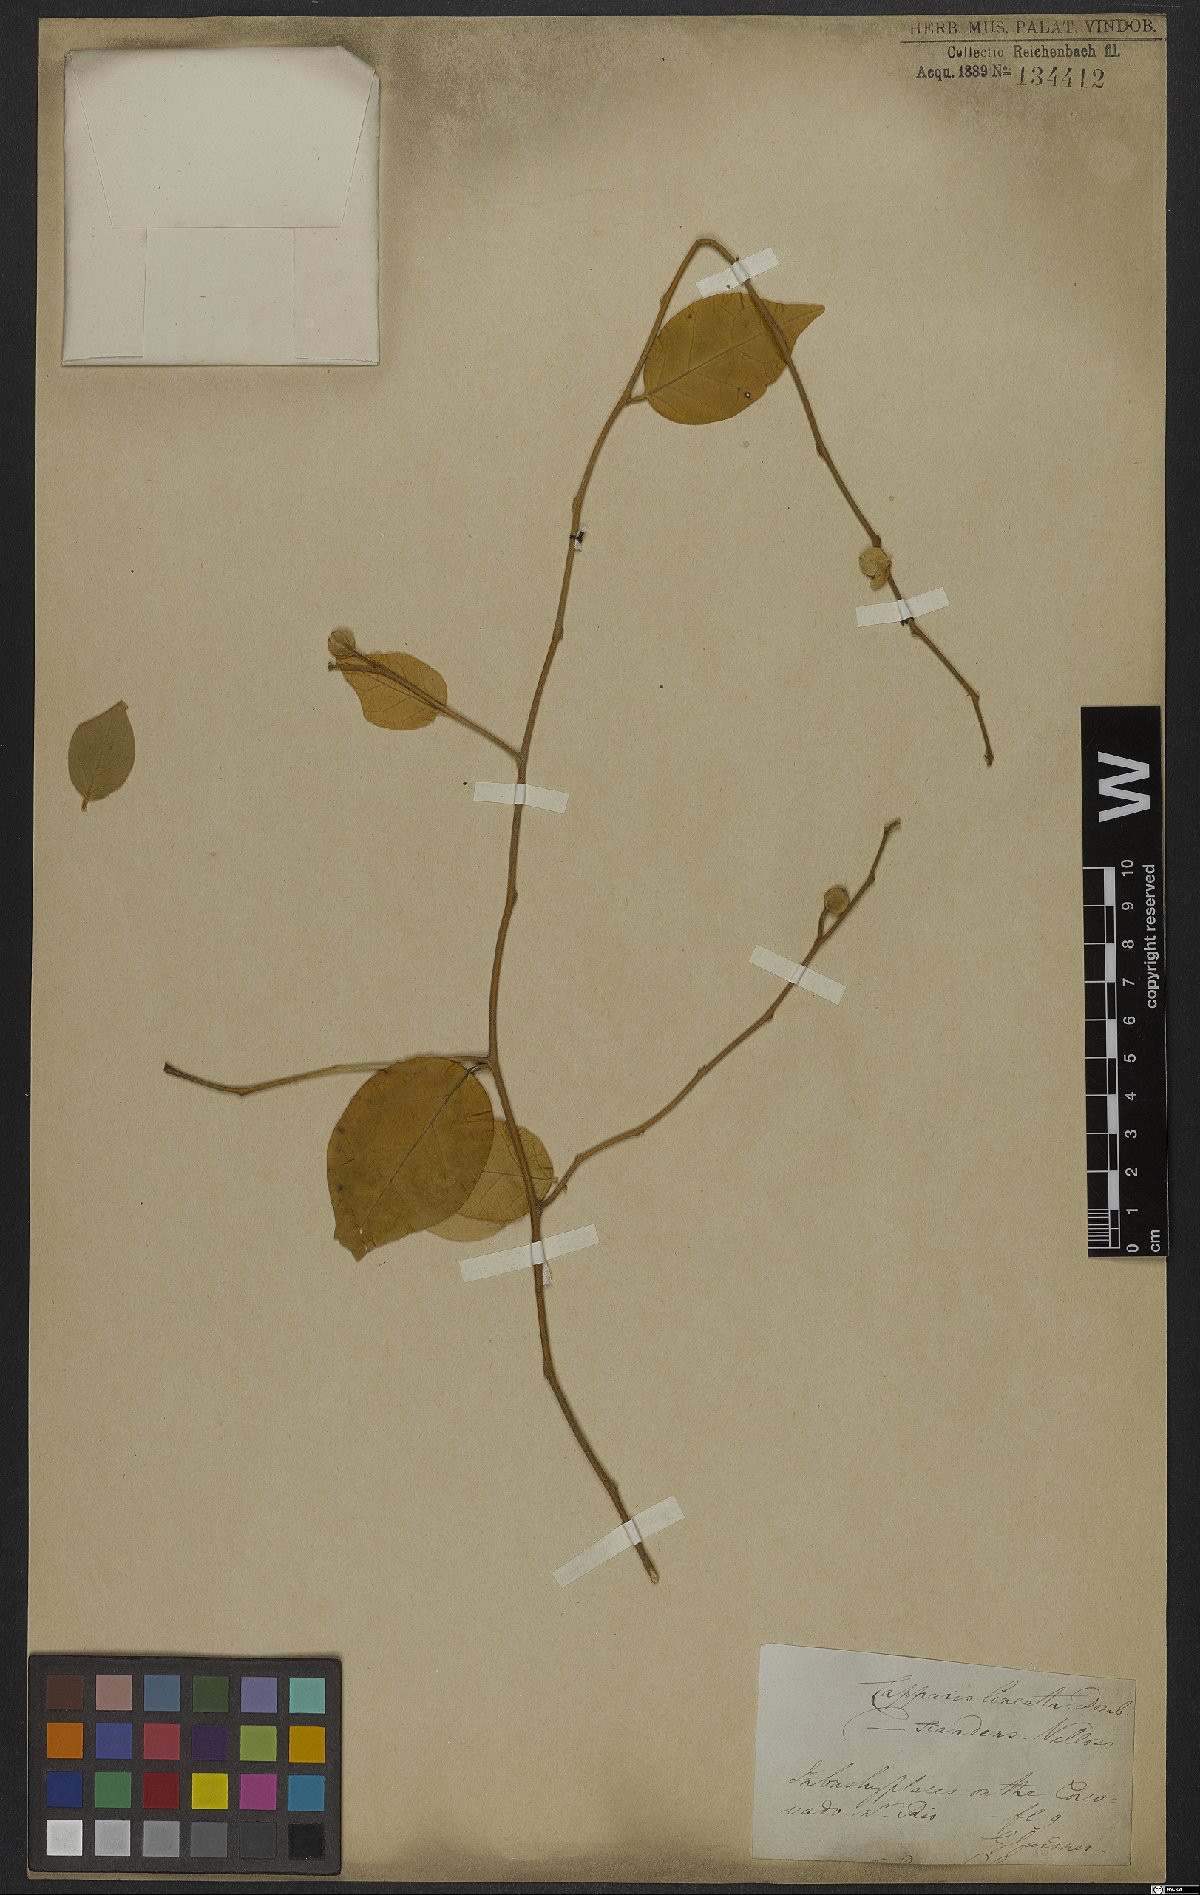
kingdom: Plantae
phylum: Tracheophyta
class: Magnoliopsida
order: Brassicales
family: Capparaceae
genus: Mesocapparis
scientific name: Mesocapparis lineata
